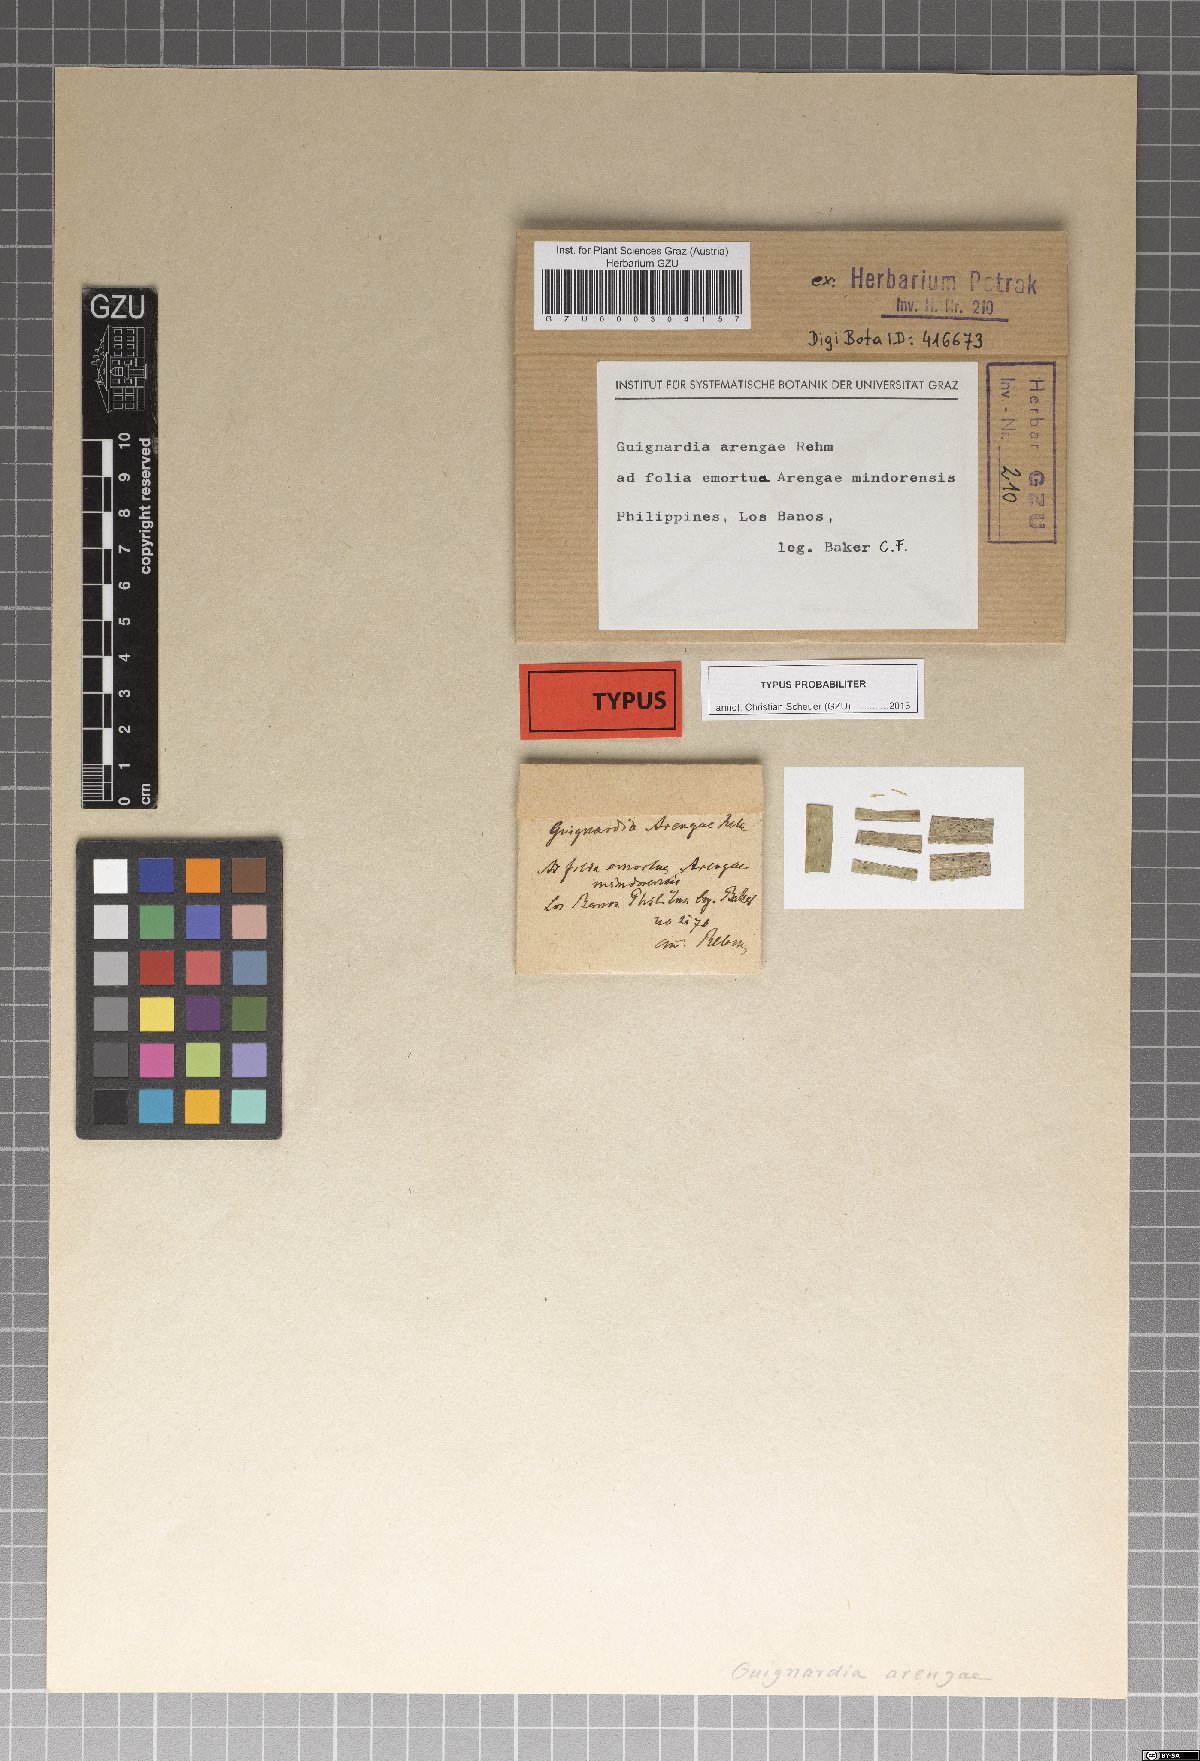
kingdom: Fungi
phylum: Ascomycota
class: Dothideomycetes
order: Botryosphaeriales
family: Botryosphaeriaceae
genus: Melanops
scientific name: Melanops arengae
